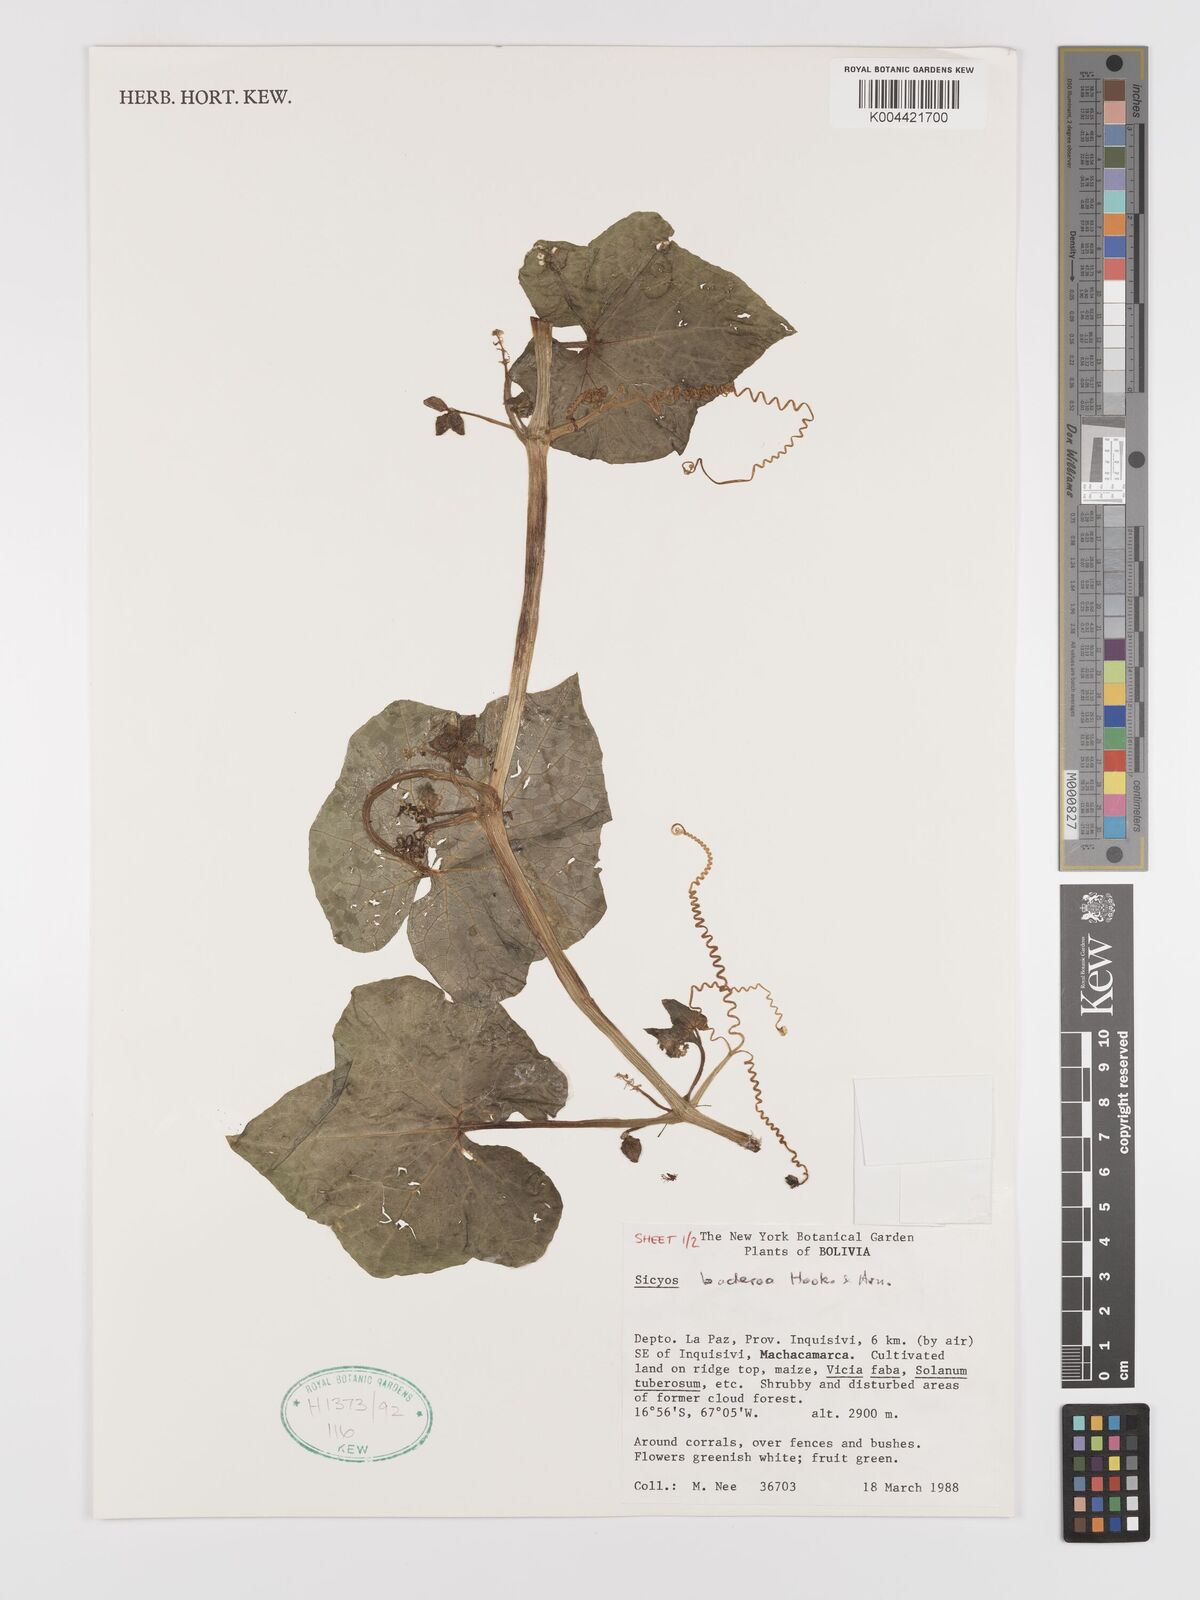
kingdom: Plantae
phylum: Tracheophyta
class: Magnoliopsida
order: Cucurbitales
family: Cucurbitaceae
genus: Sicyos
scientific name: Sicyos baderoa
